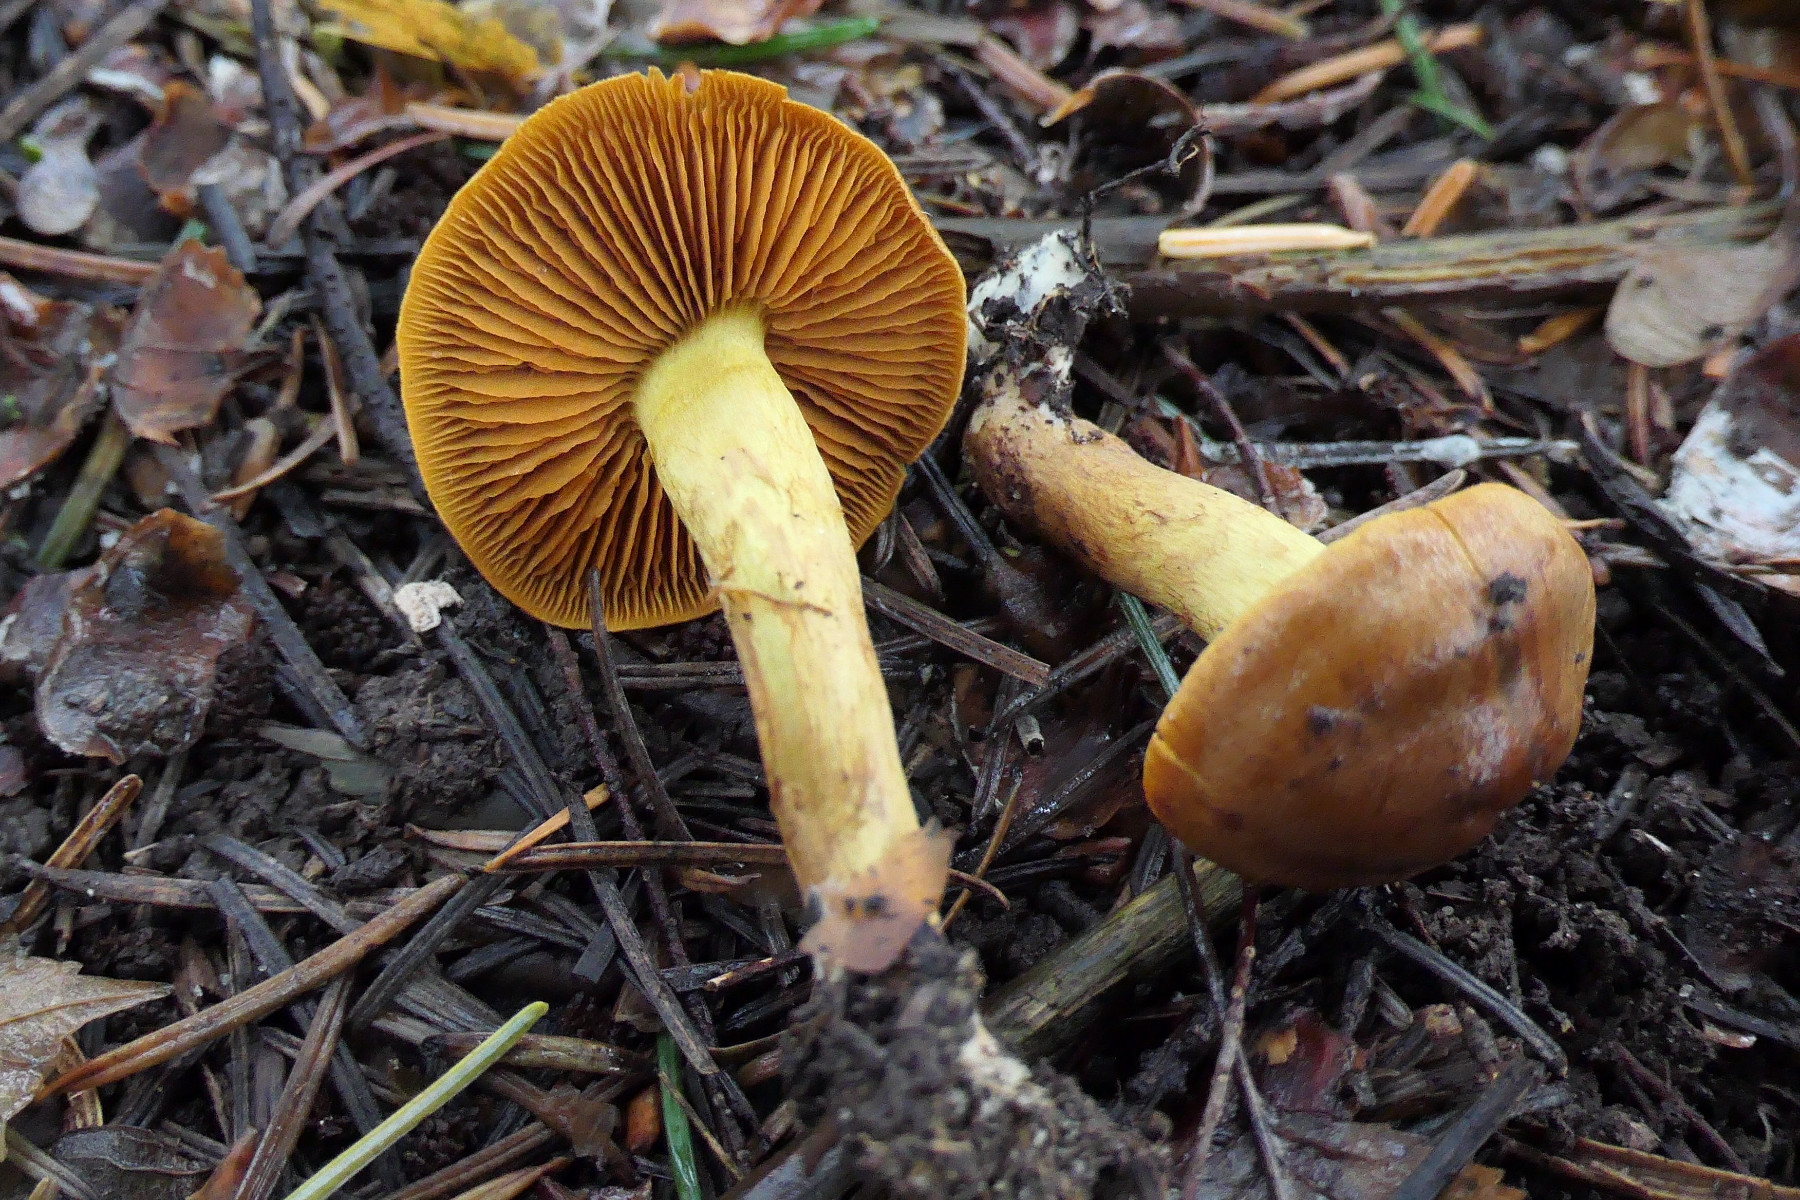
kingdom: Fungi
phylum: Basidiomycota
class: Agaricomycetes
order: Agaricales
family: Cortinariaceae
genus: Cortinarius
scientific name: Cortinarius cinnamomeus
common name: kanel-slørhat
